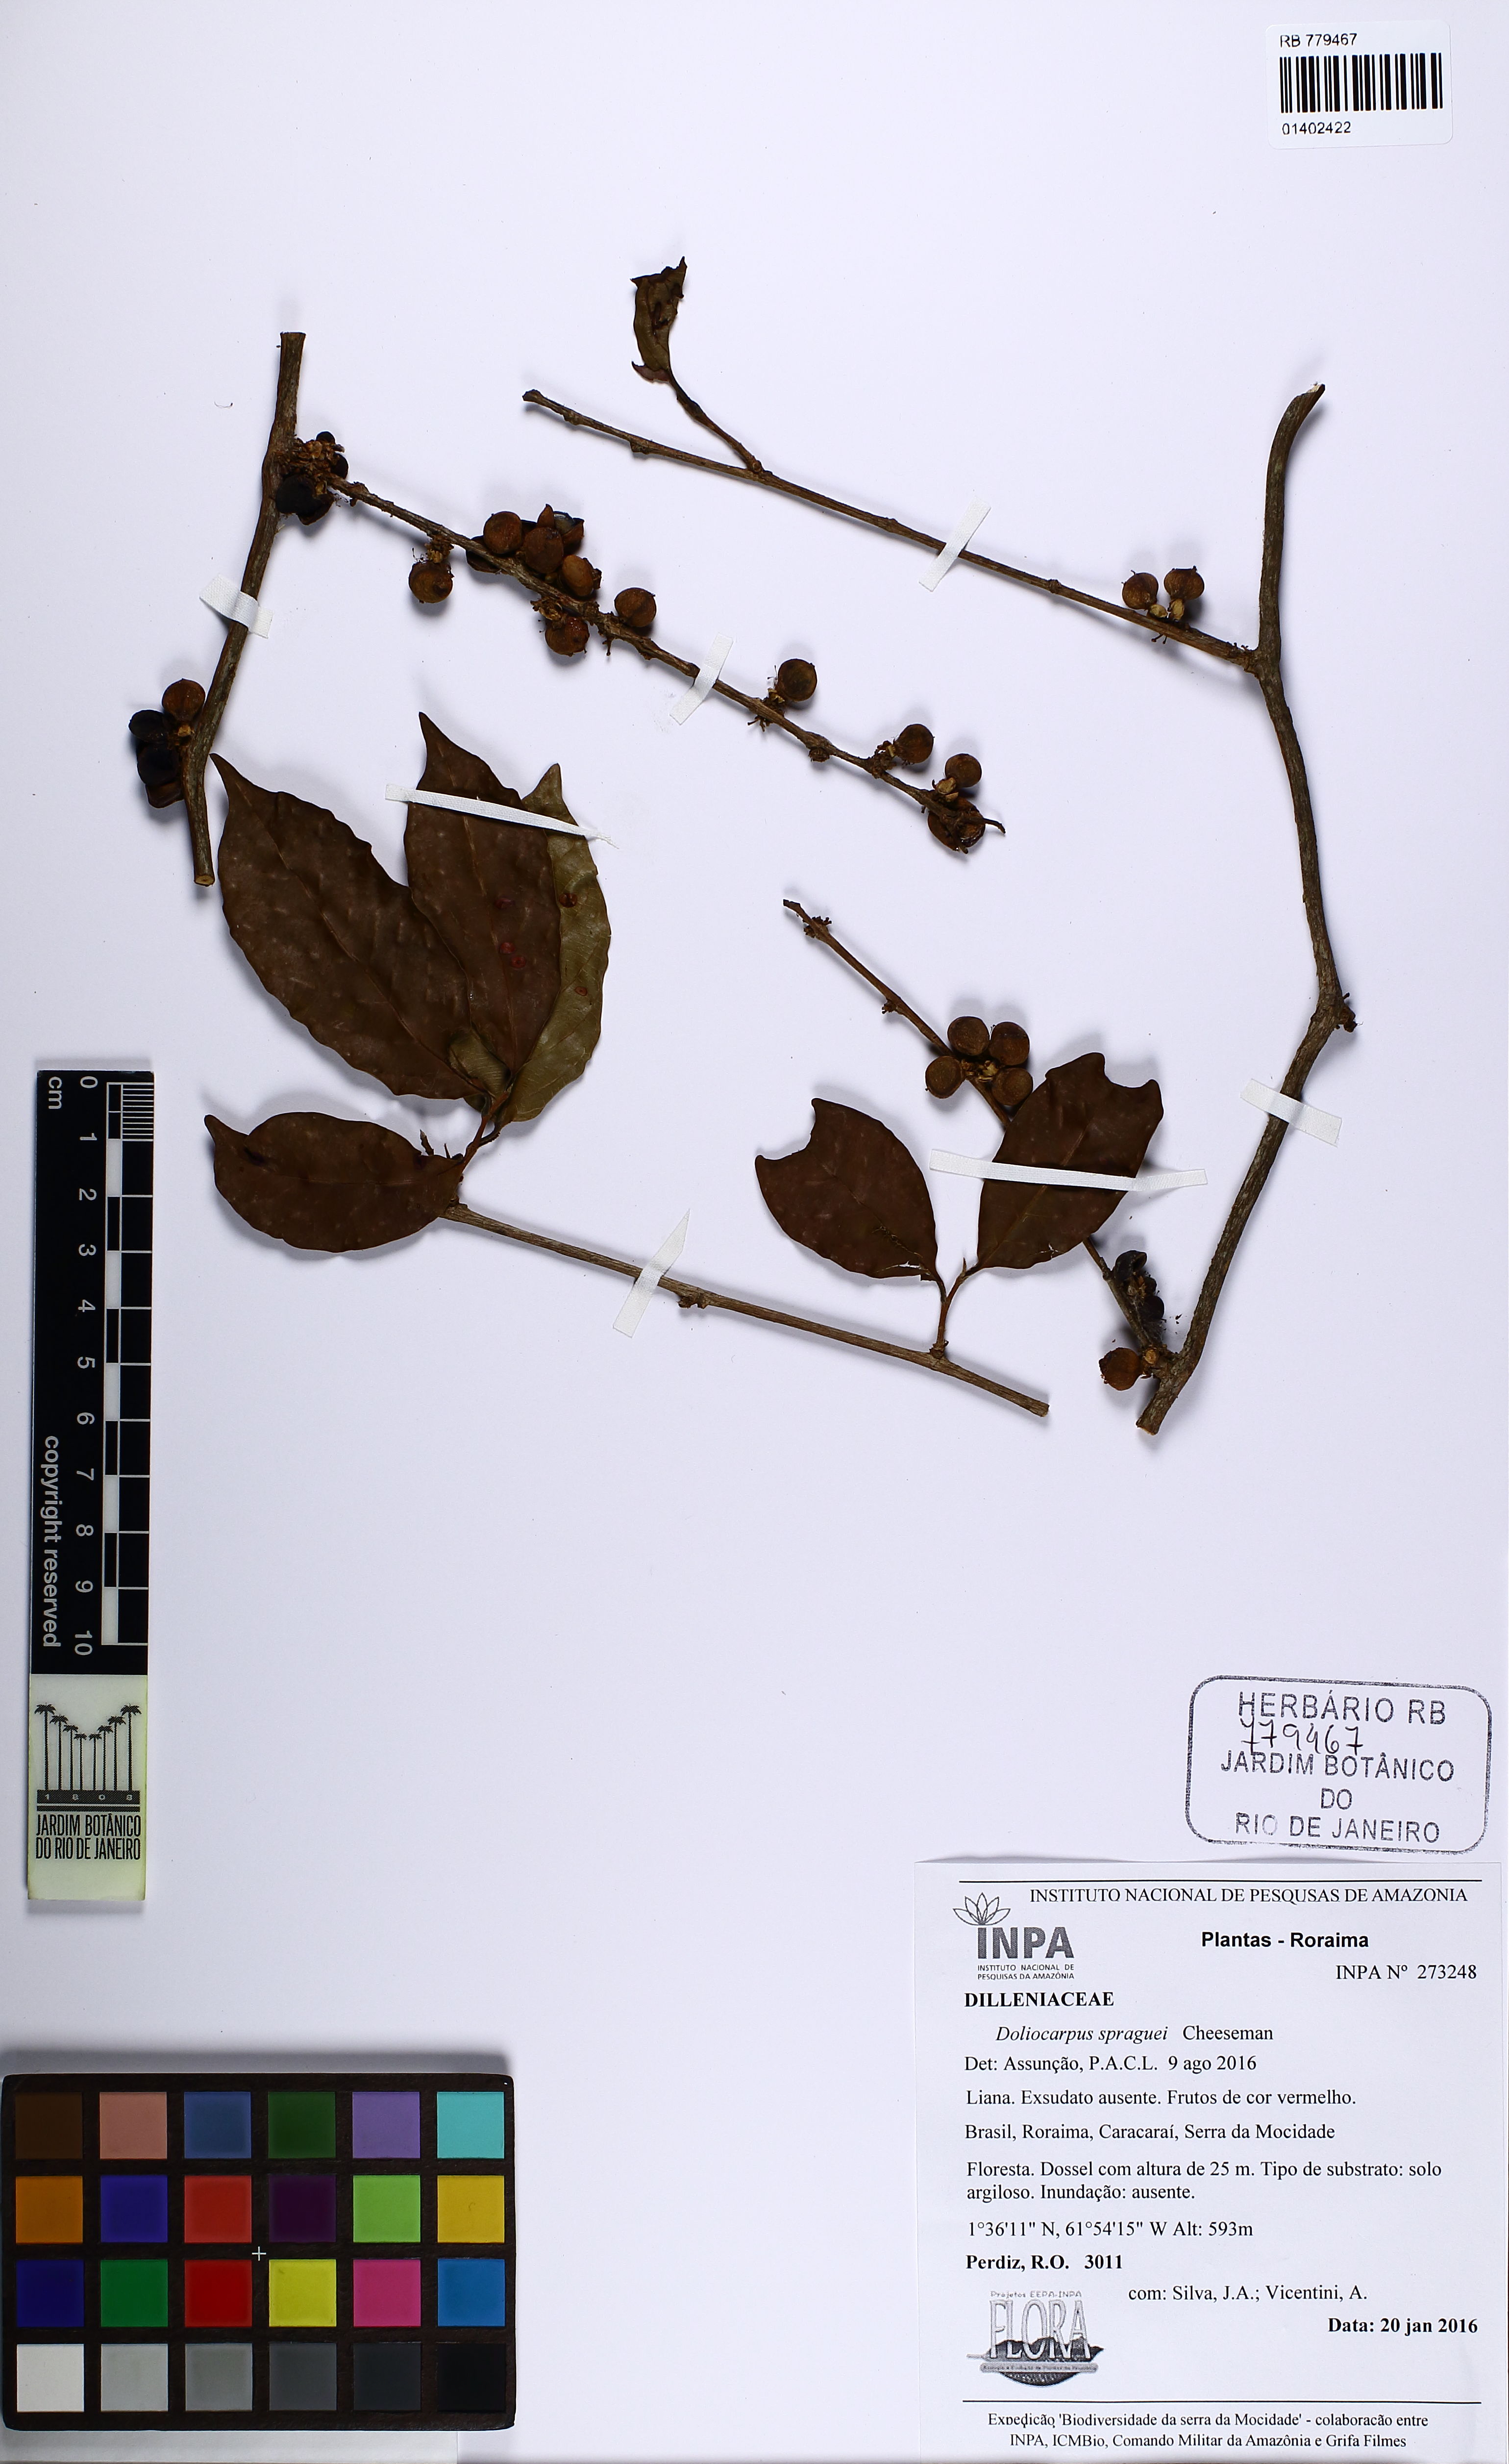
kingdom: Plantae
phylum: Tracheophyta
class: Magnoliopsida
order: Dilleniales
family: Dilleniaceae
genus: Doliocarpus
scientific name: Doliocarpus spraguei
